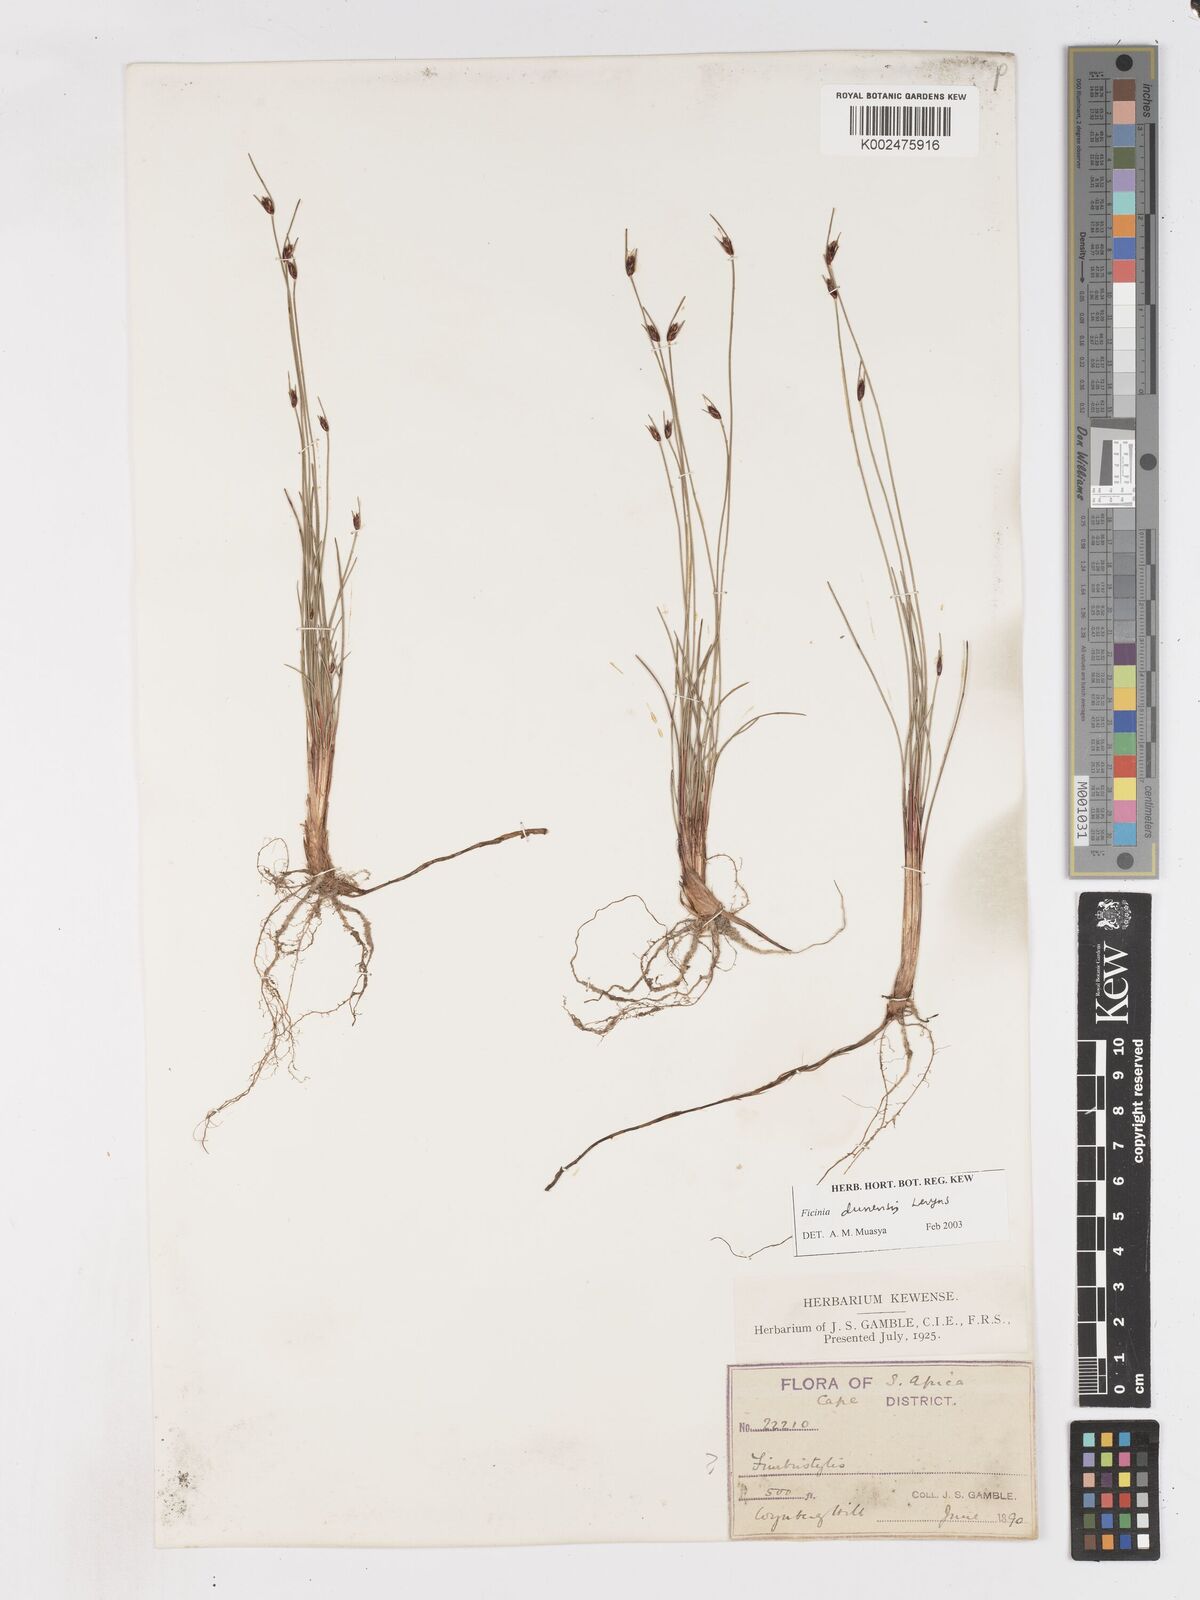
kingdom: Plantae
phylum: Tracheophyta
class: Liliopsida
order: Poales
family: Cyperaceae
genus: Ficinia
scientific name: Ficinia dunensis
